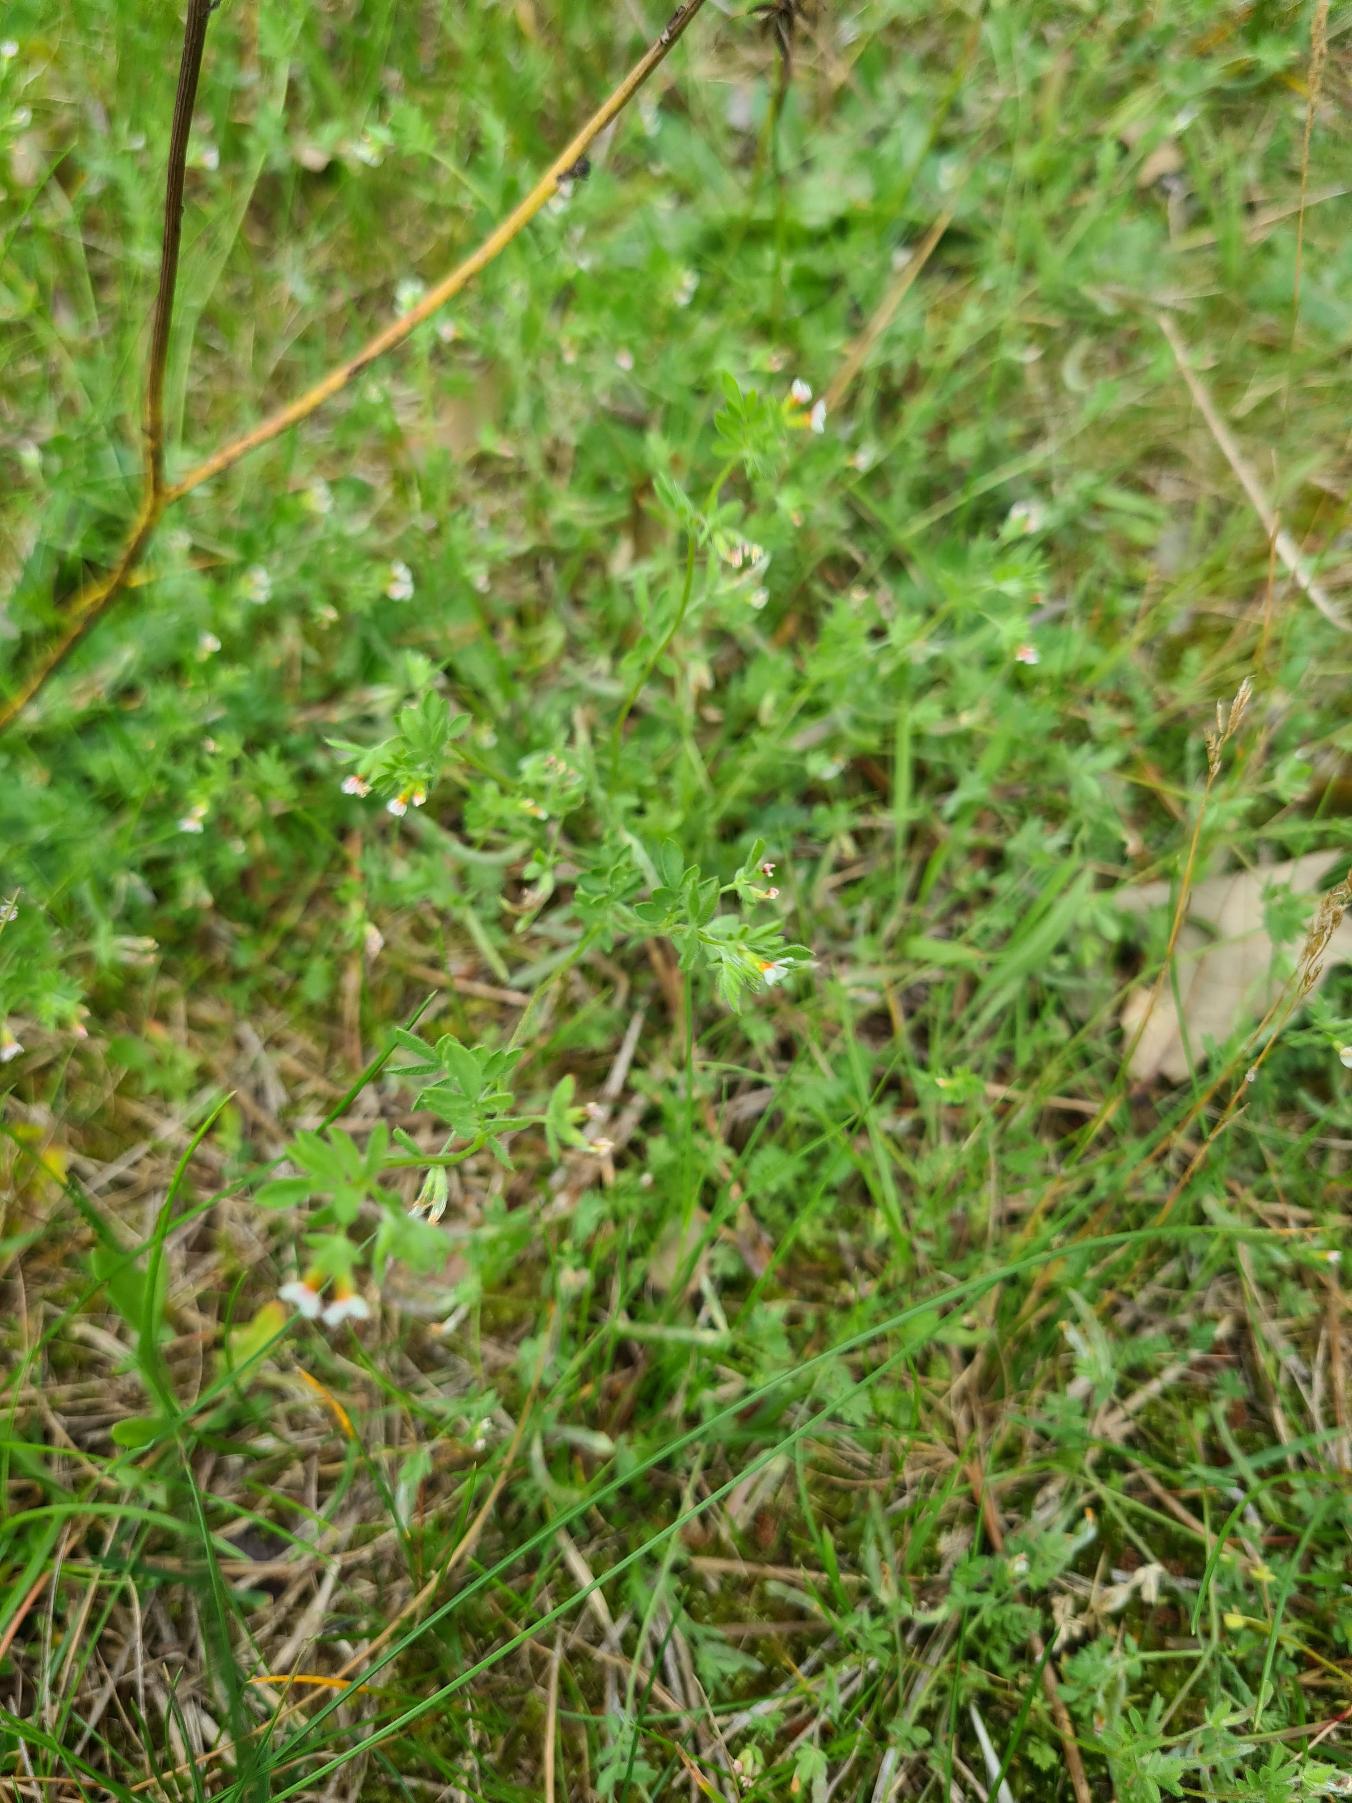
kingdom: Plantae
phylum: Tracheophyta
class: Magnoliopsida
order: Fabales
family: Fabaceae
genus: Ornithopus
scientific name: Ornithopus perpusillus
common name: Liden fugleklo
